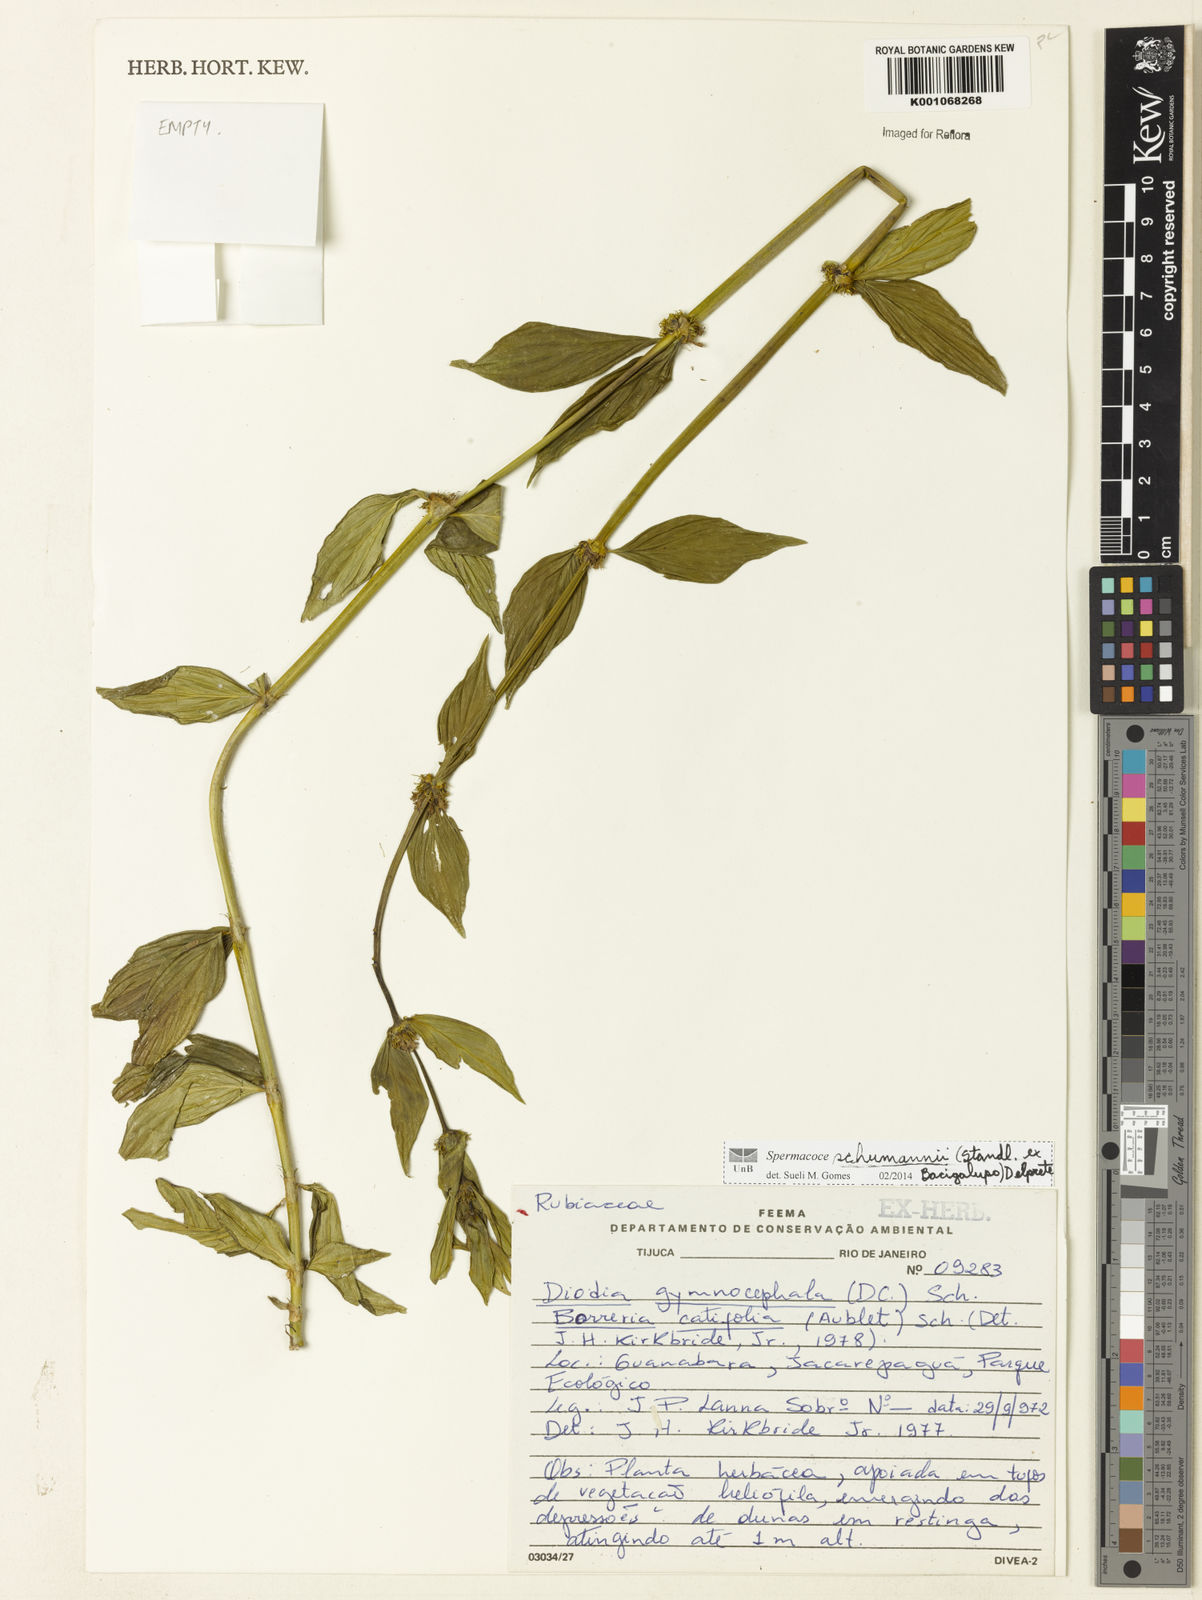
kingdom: Plantae
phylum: Tracheophyta
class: Magnoliopsida
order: Gentianales
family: Rubiaceae
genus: Spermacoce
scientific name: Spermacoce schumannii
